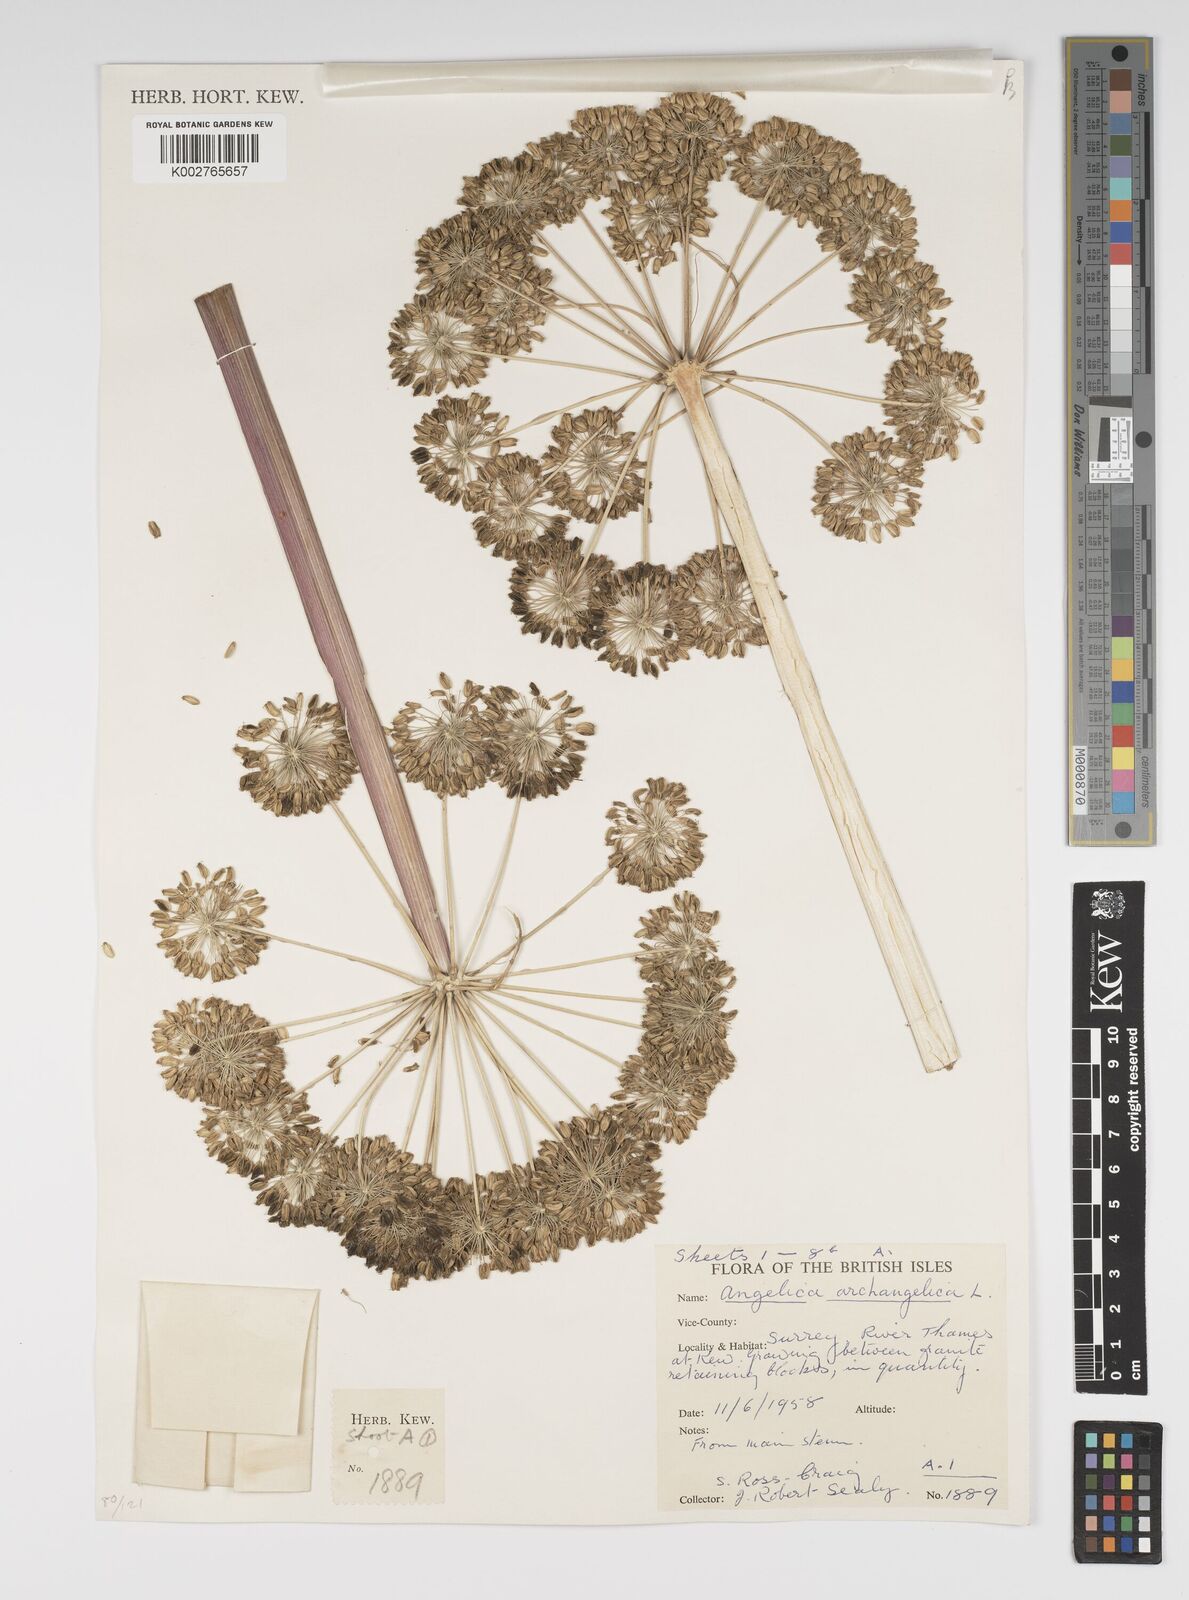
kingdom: Plantae
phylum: Tracheophyta
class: Magnoliopsida
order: Apiales
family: Apiaceae
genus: Angelica
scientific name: Angelica archangelica
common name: Garden angelica
